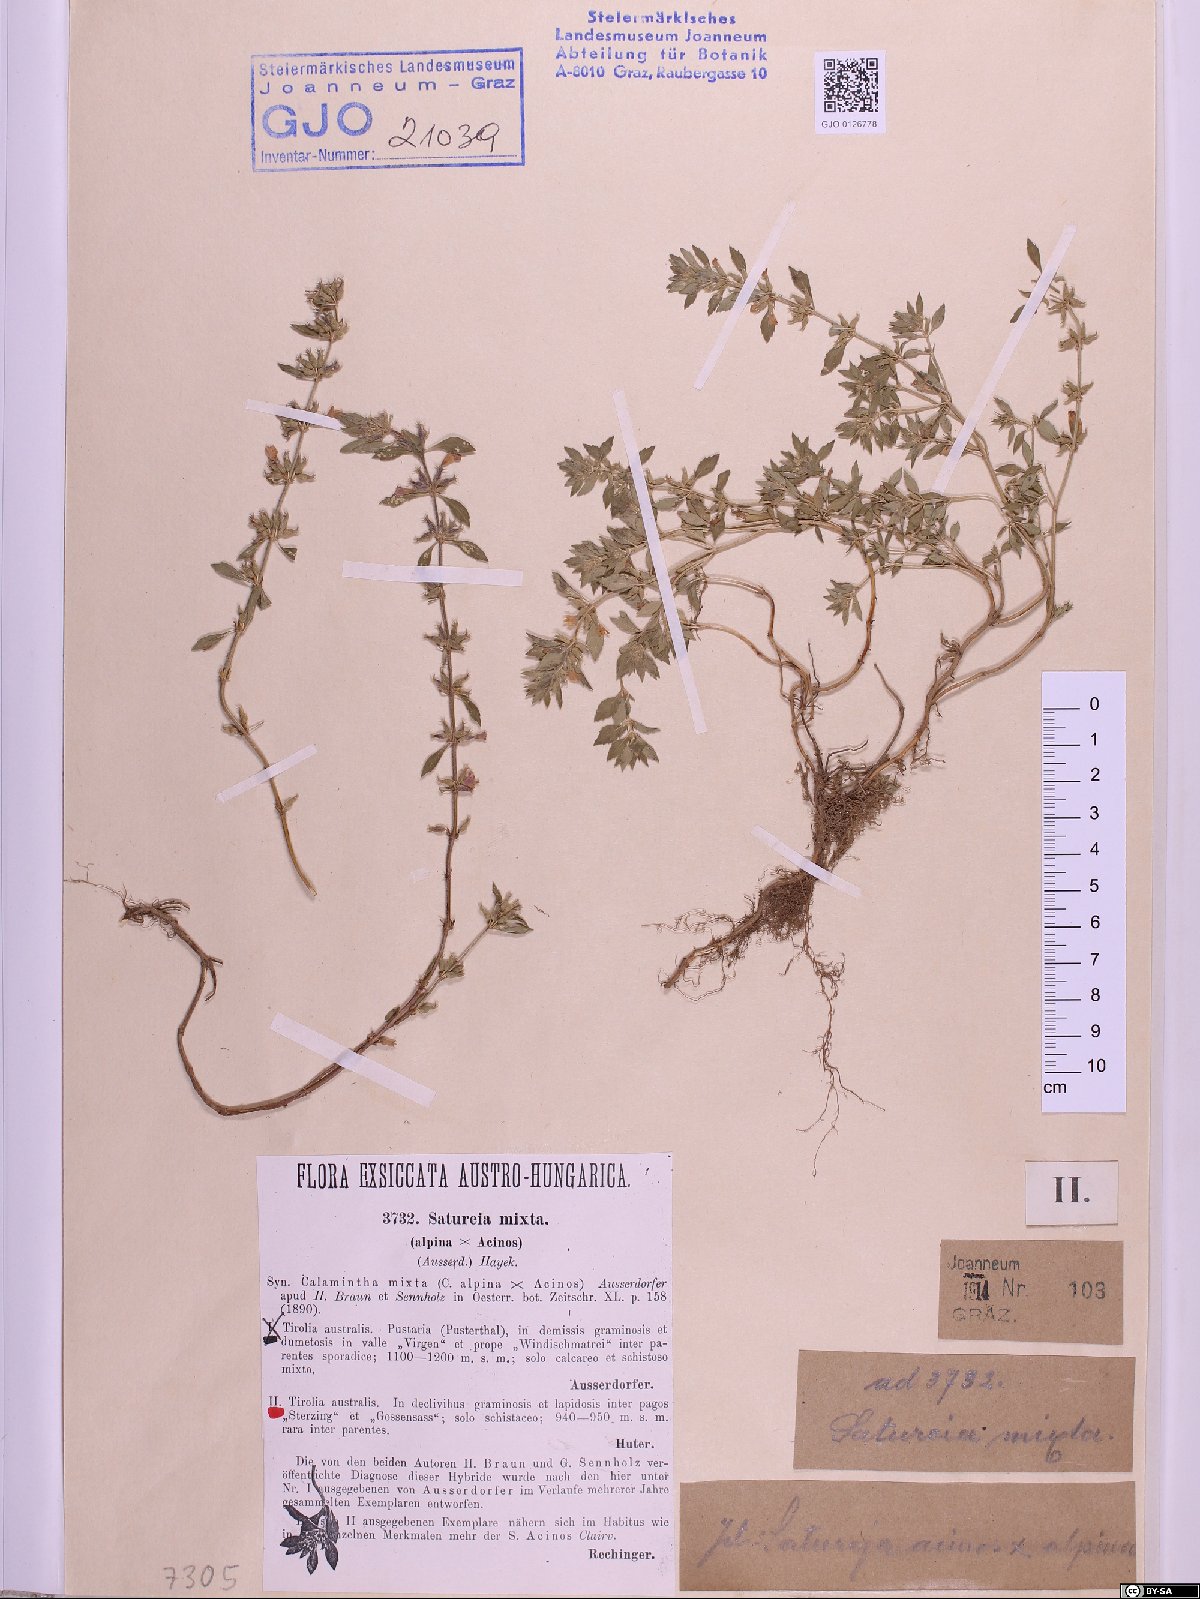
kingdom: Plantae
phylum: Tracheophyta
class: Magnoliopsida
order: Lamiales
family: Lamiaceae
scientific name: Lamiaceae
